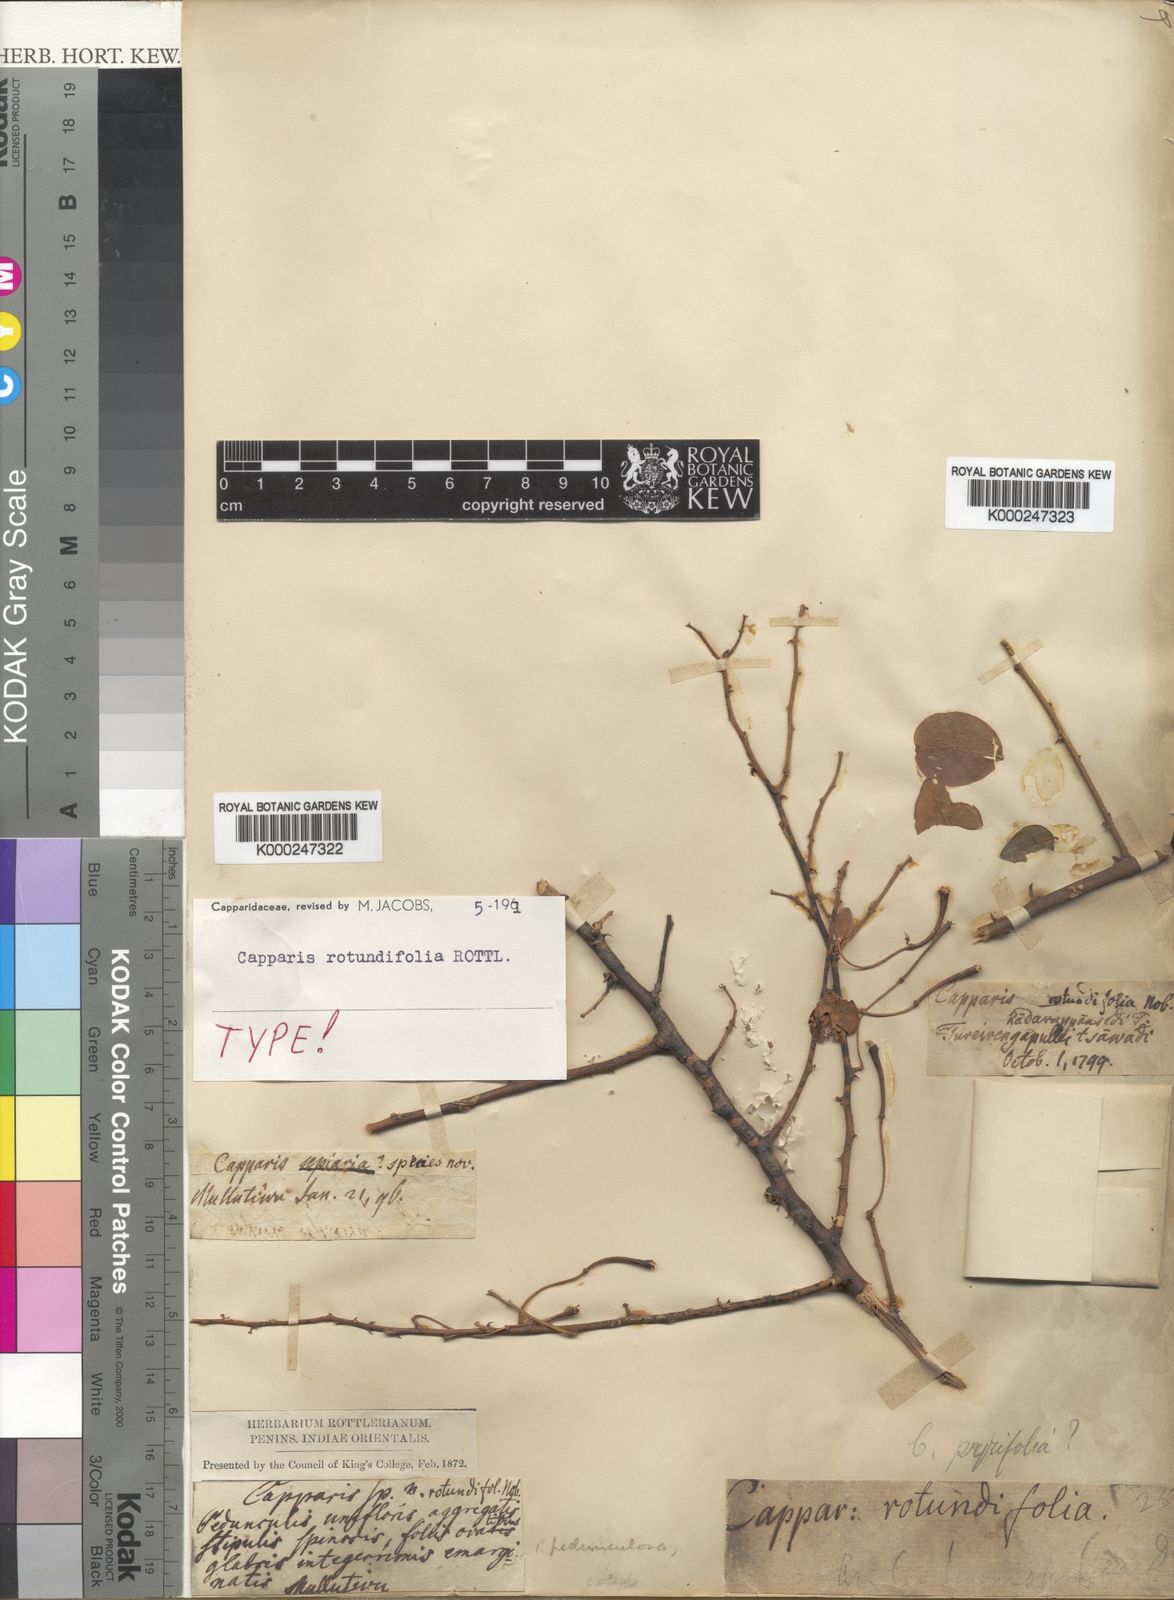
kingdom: Plantae
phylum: Tracheophyta
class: Magnoliopsida
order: Brassicales
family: Capparaceae
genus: Capparis
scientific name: Capparis rotundifolia
